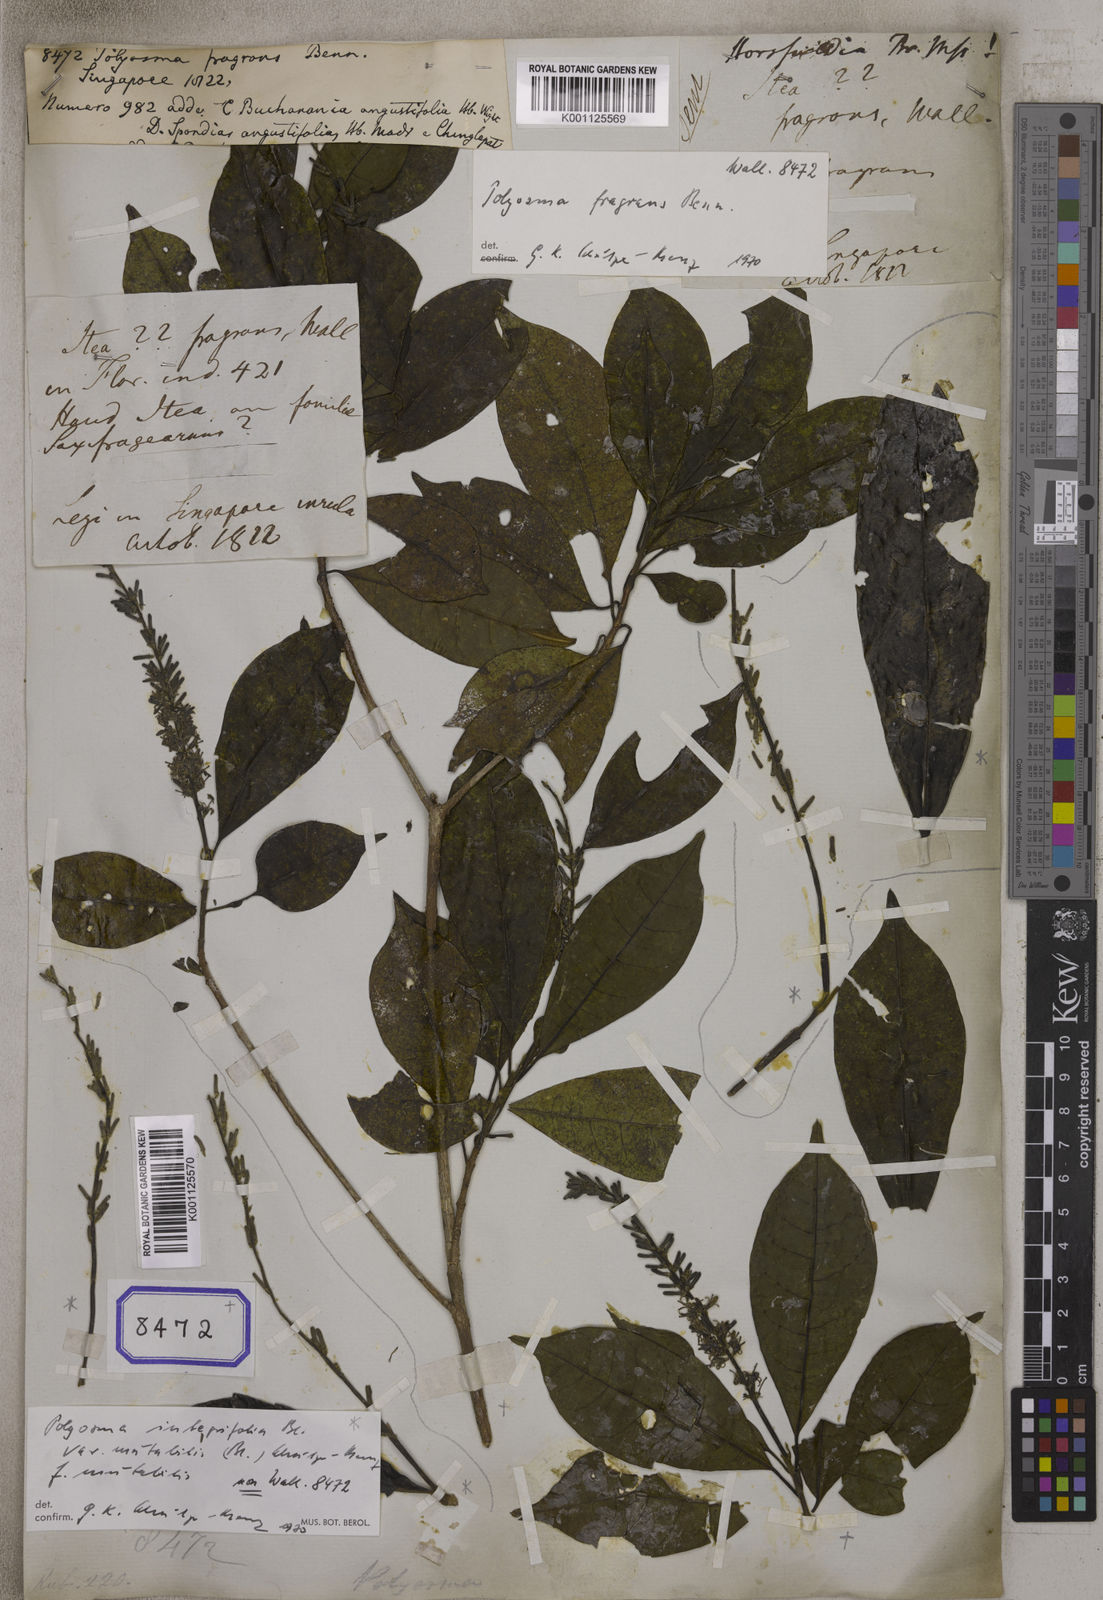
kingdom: Plantae
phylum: Tracheophyta
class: Magnoliopsida
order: Escalloniales
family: Escalloniaceae
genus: Polyosma
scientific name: Polyosma fragrans
